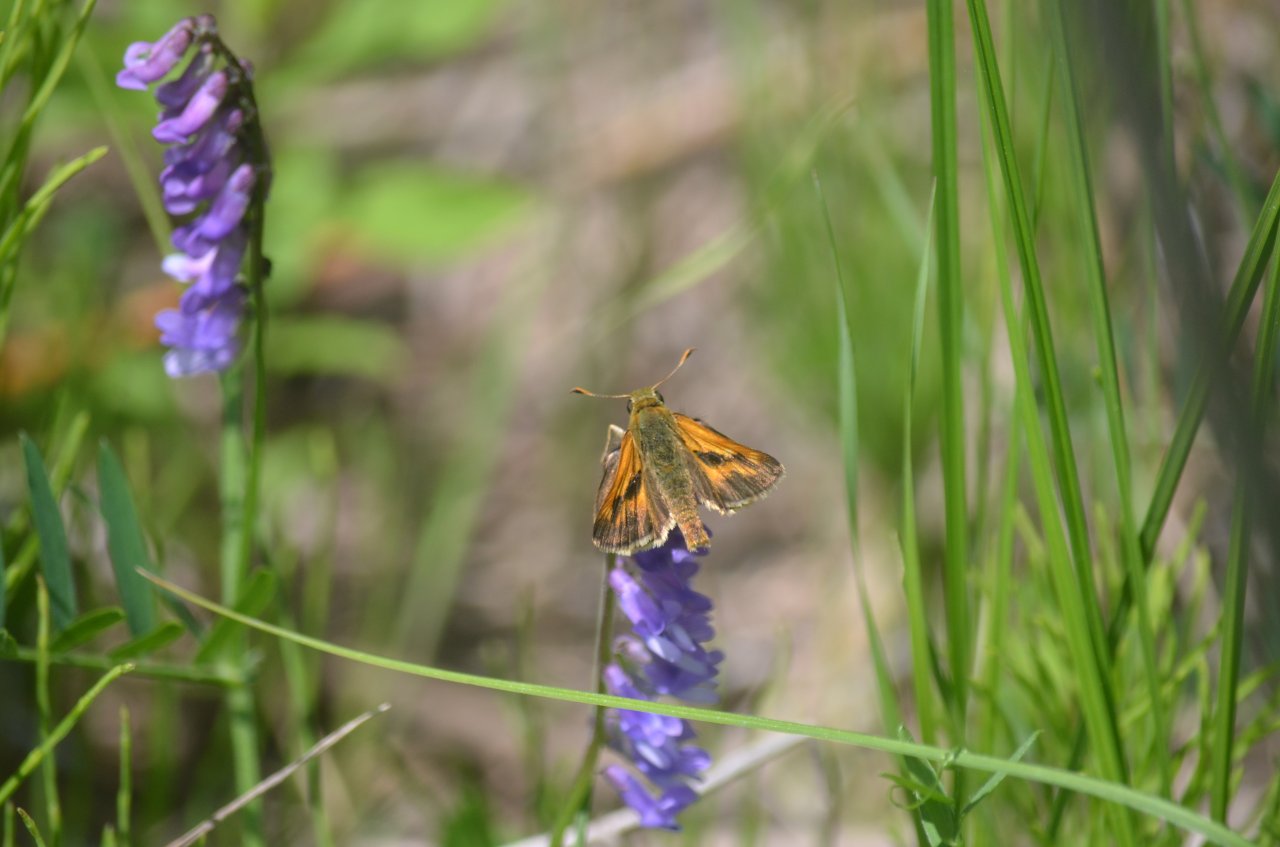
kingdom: Animalia
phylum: Arthropoda
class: Insecta
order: Lepidoptera
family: Hesperiidae
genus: Polites
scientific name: Polites
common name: Long Dash Skipper
